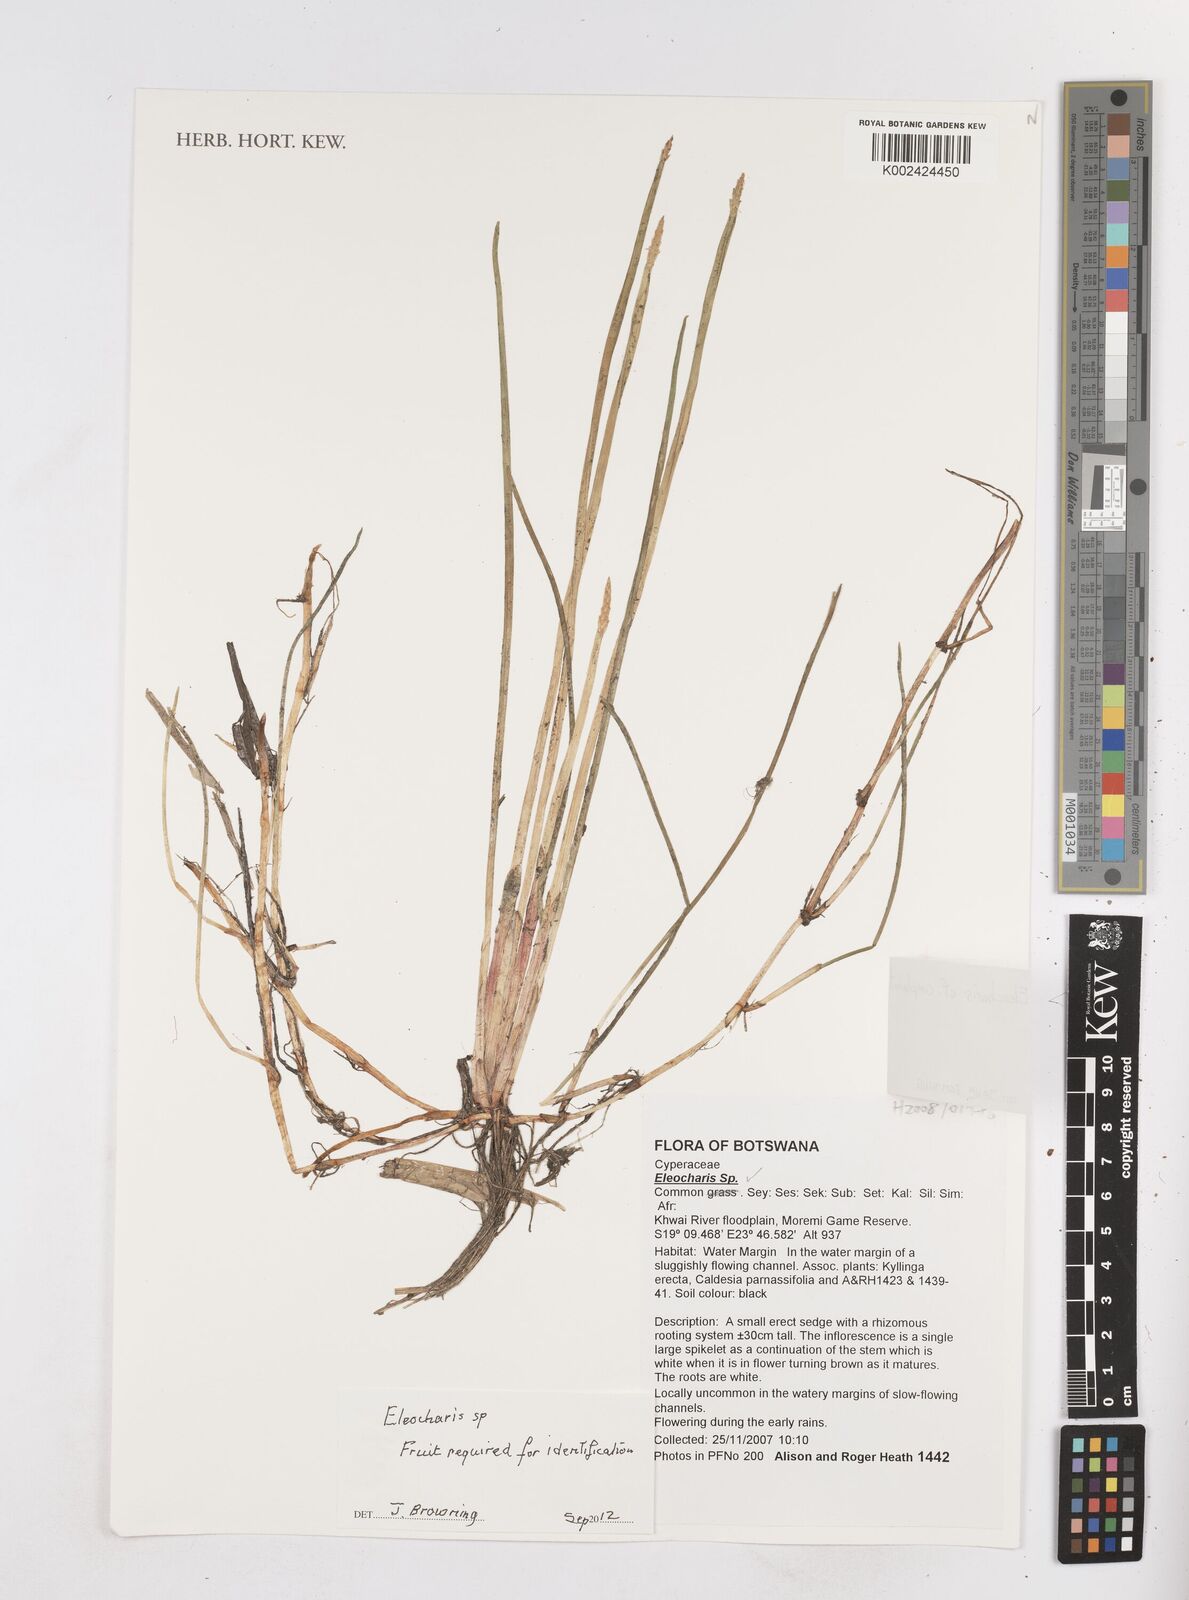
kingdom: Plantae
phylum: Tracheophyta
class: Liliopsida
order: Poales
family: Cyperaceae
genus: Eleocharis
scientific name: Eleocharis
